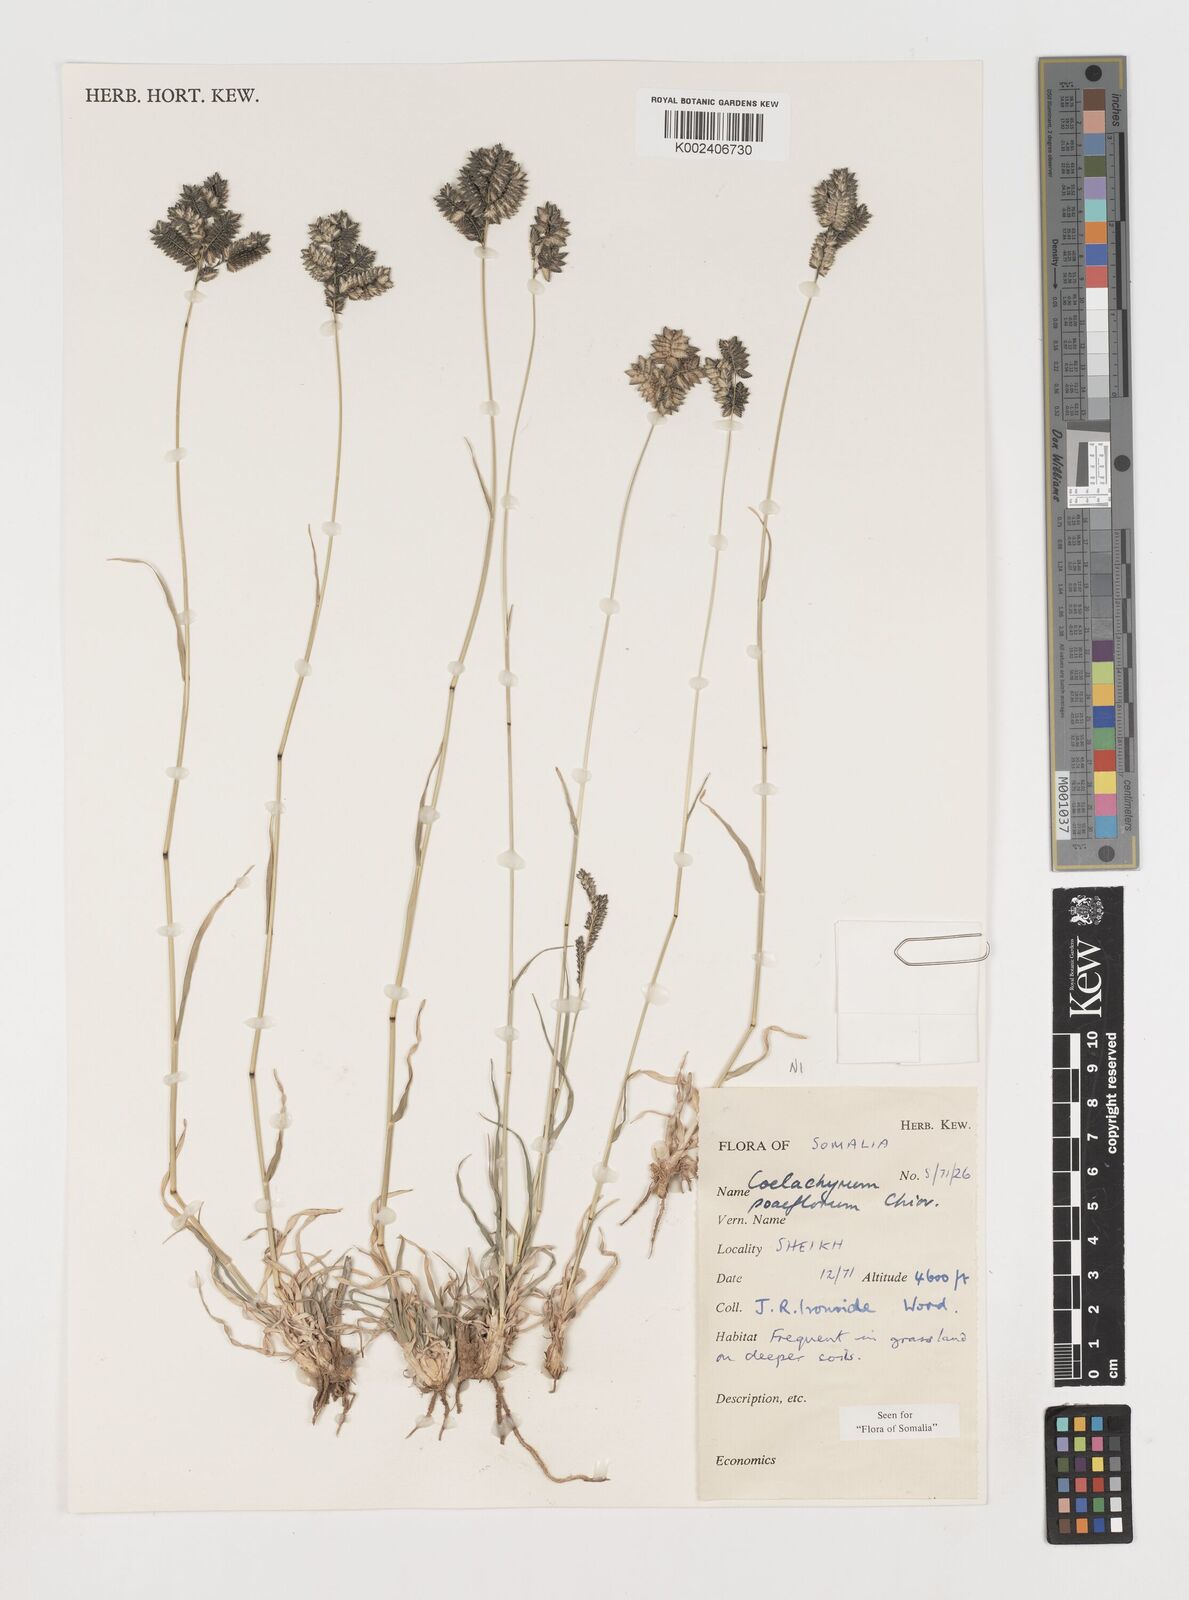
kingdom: Plantae
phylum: Tracheophyta
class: Liliopsida
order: Poales
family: Poaceae
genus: Coelachyrum
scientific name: Coelachyrum poiflorum
